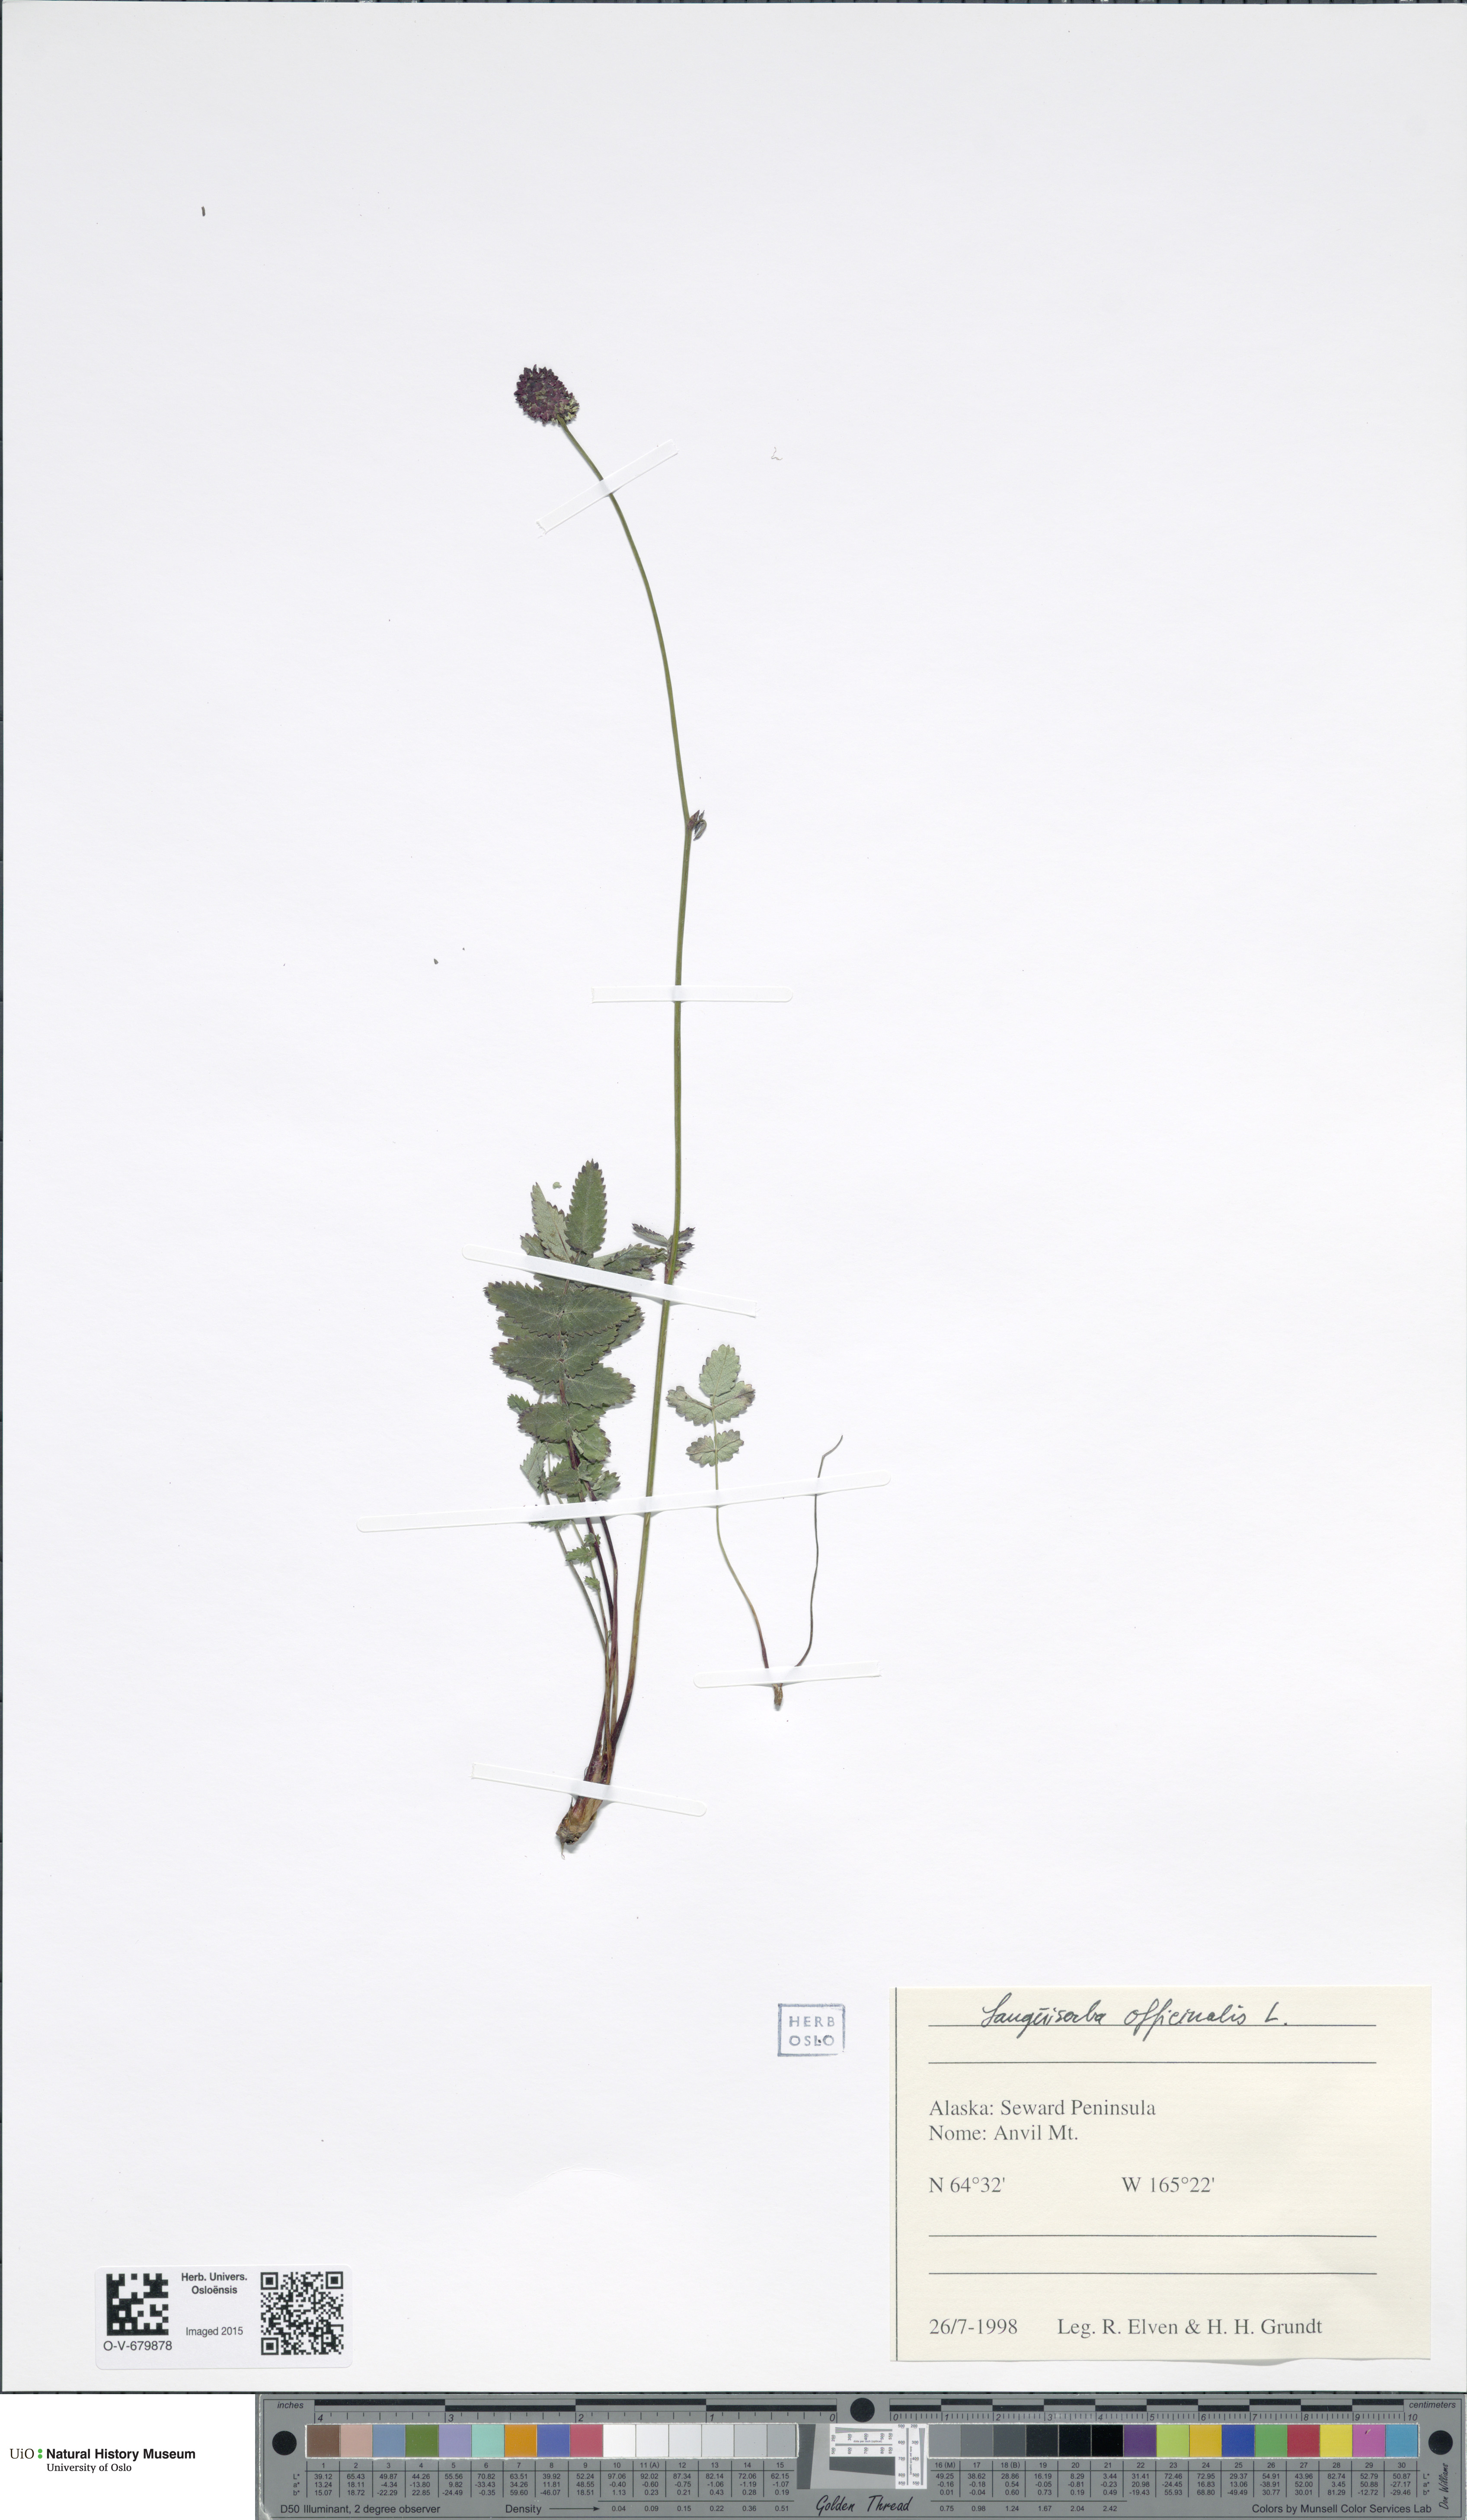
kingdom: Plantae
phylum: Tracheophyta
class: Magnoliopsida
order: Rosales
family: Rosaceae
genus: Sanguisorba
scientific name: Sanguisorba officinalis
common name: Great burnet
